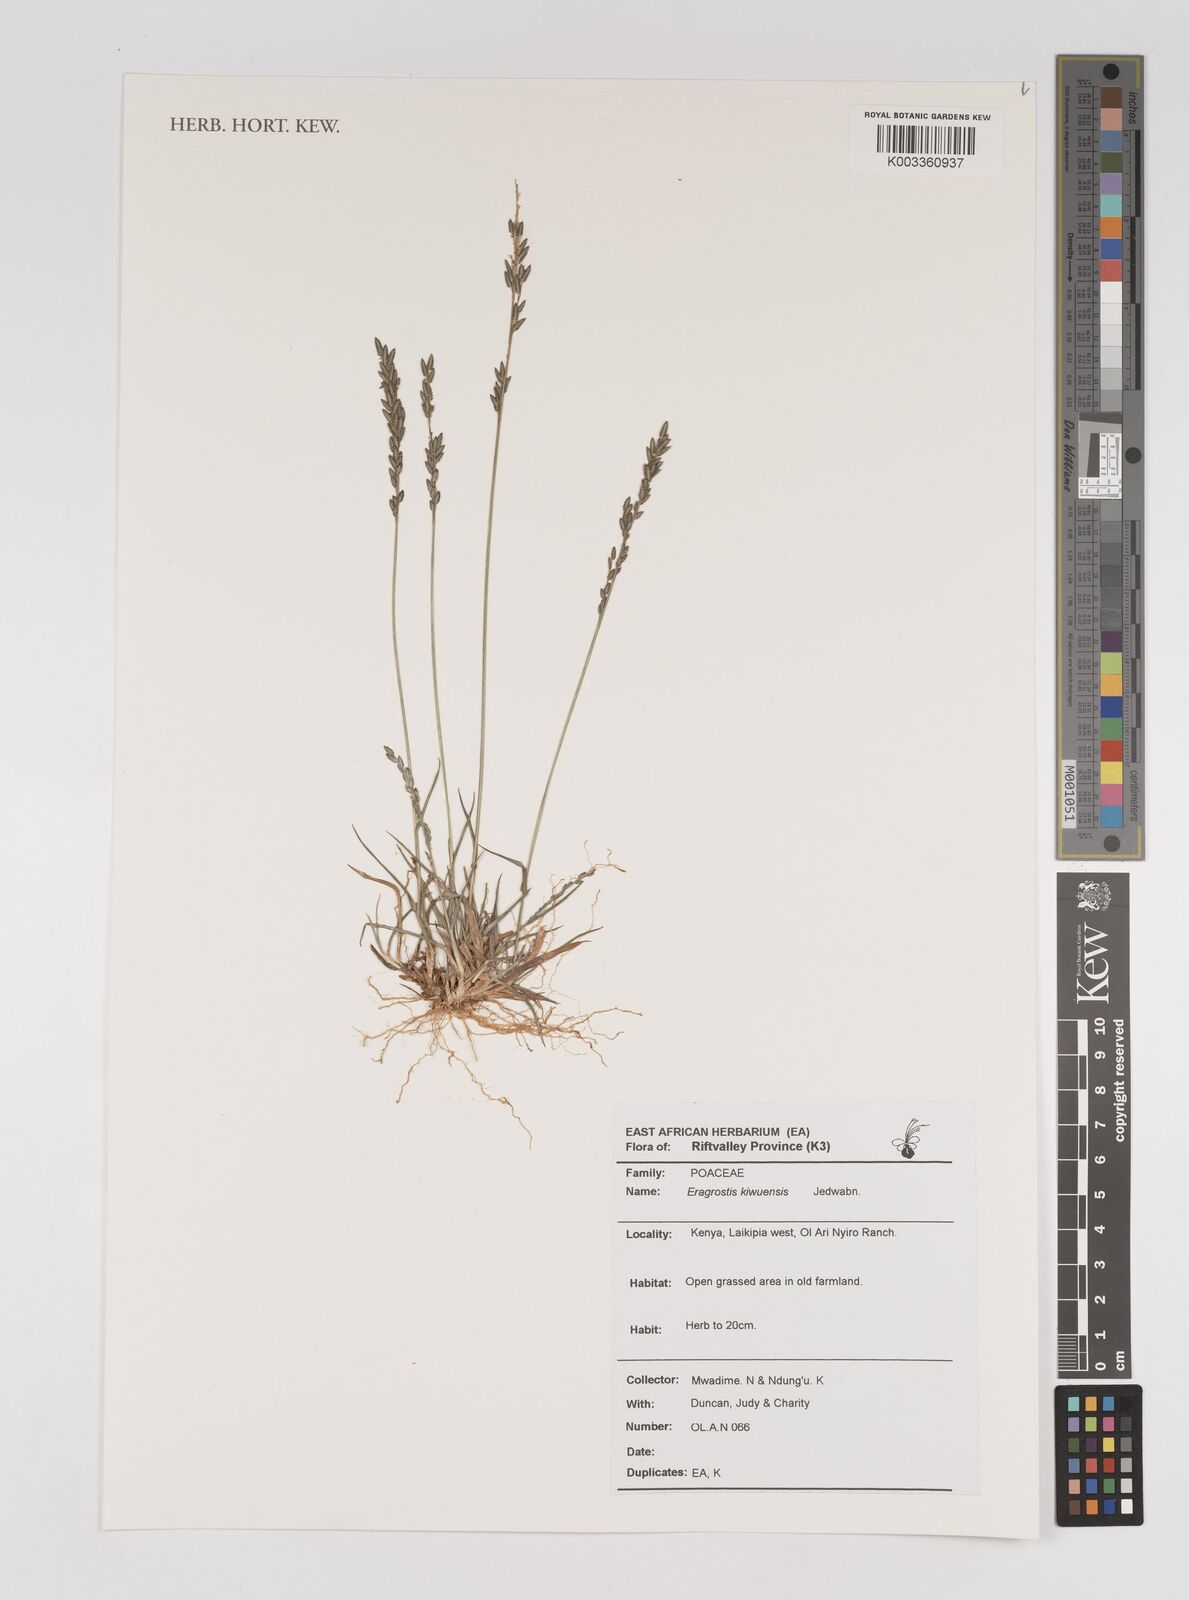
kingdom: Plantae
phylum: Tracheophyta
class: Liliopsida
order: Poales
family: Poaceae
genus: Eragrostis
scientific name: Eragrostis schweinfurthii
